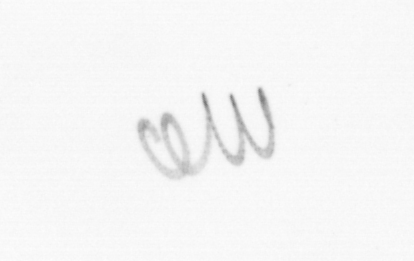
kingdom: Chromista
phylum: Ochrophyta
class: Bacillariophyceae
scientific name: Bacillariophyceae
